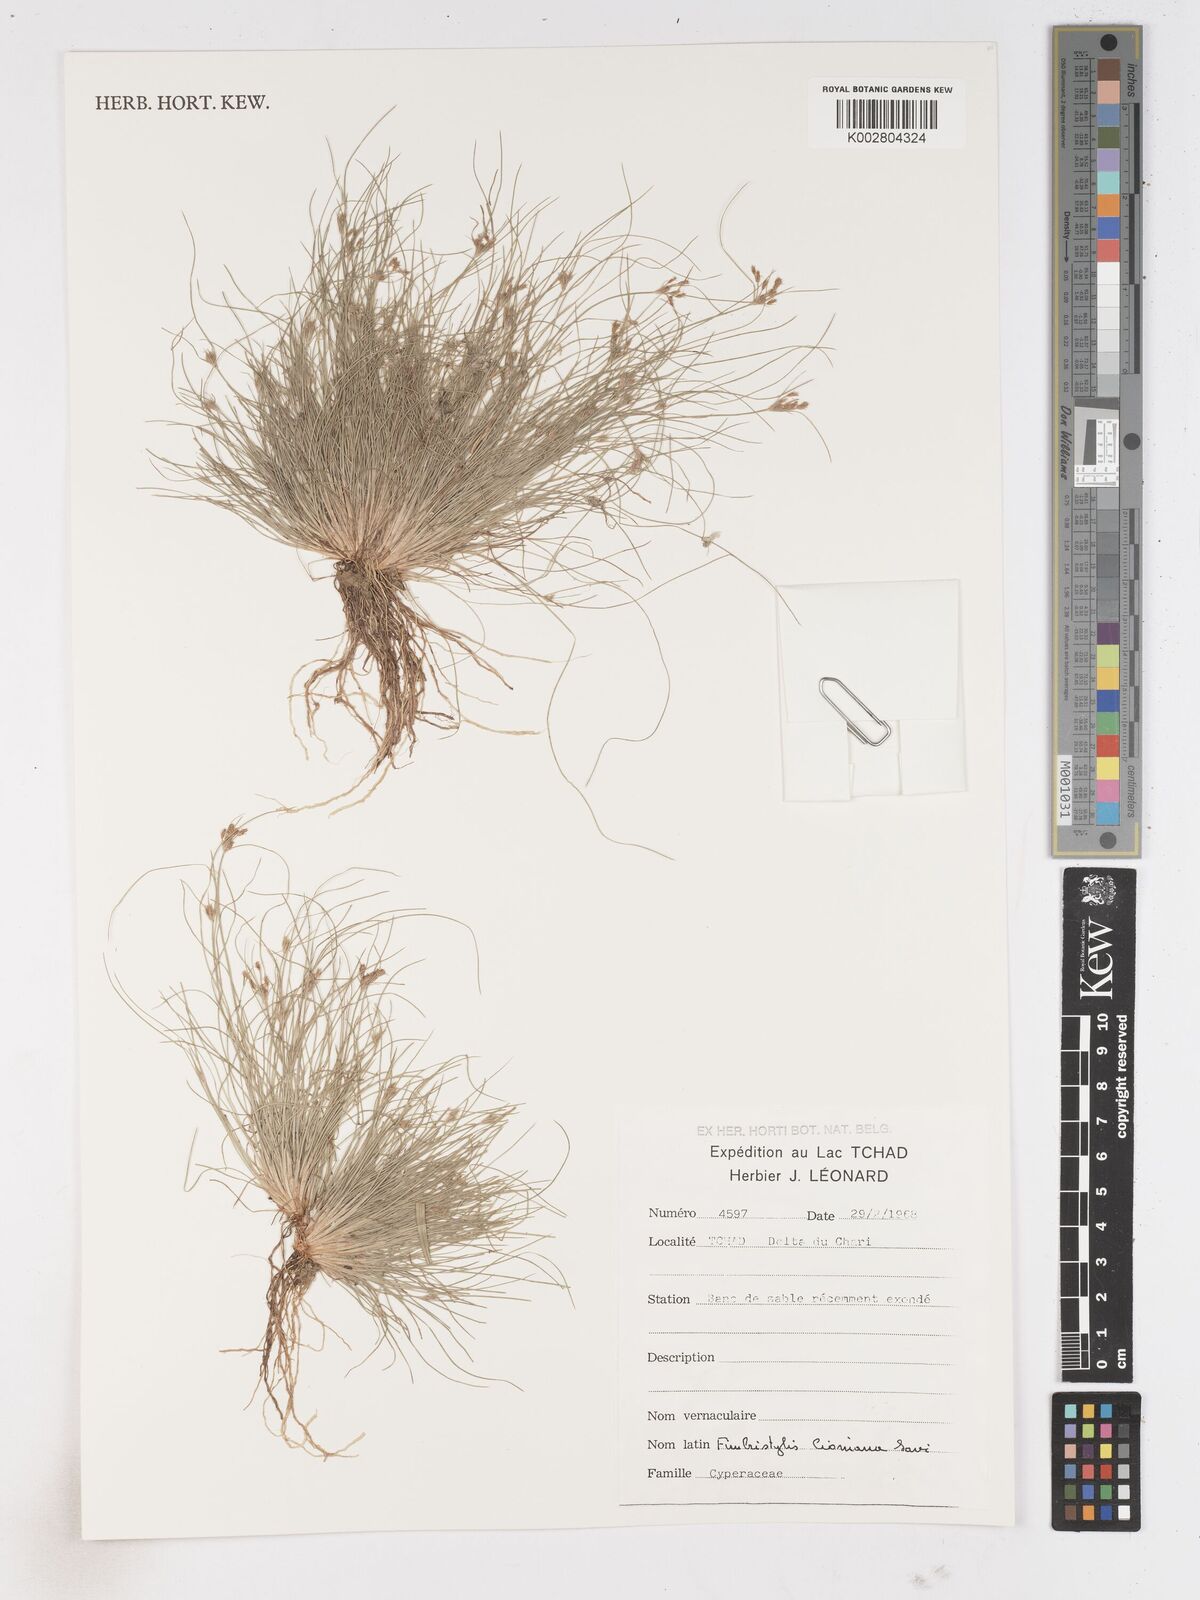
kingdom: Plantae
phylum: Tracheophyta
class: Liliopsida
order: Poales
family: Cyperaceae
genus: Fimbristylis
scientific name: Fimbristylis
